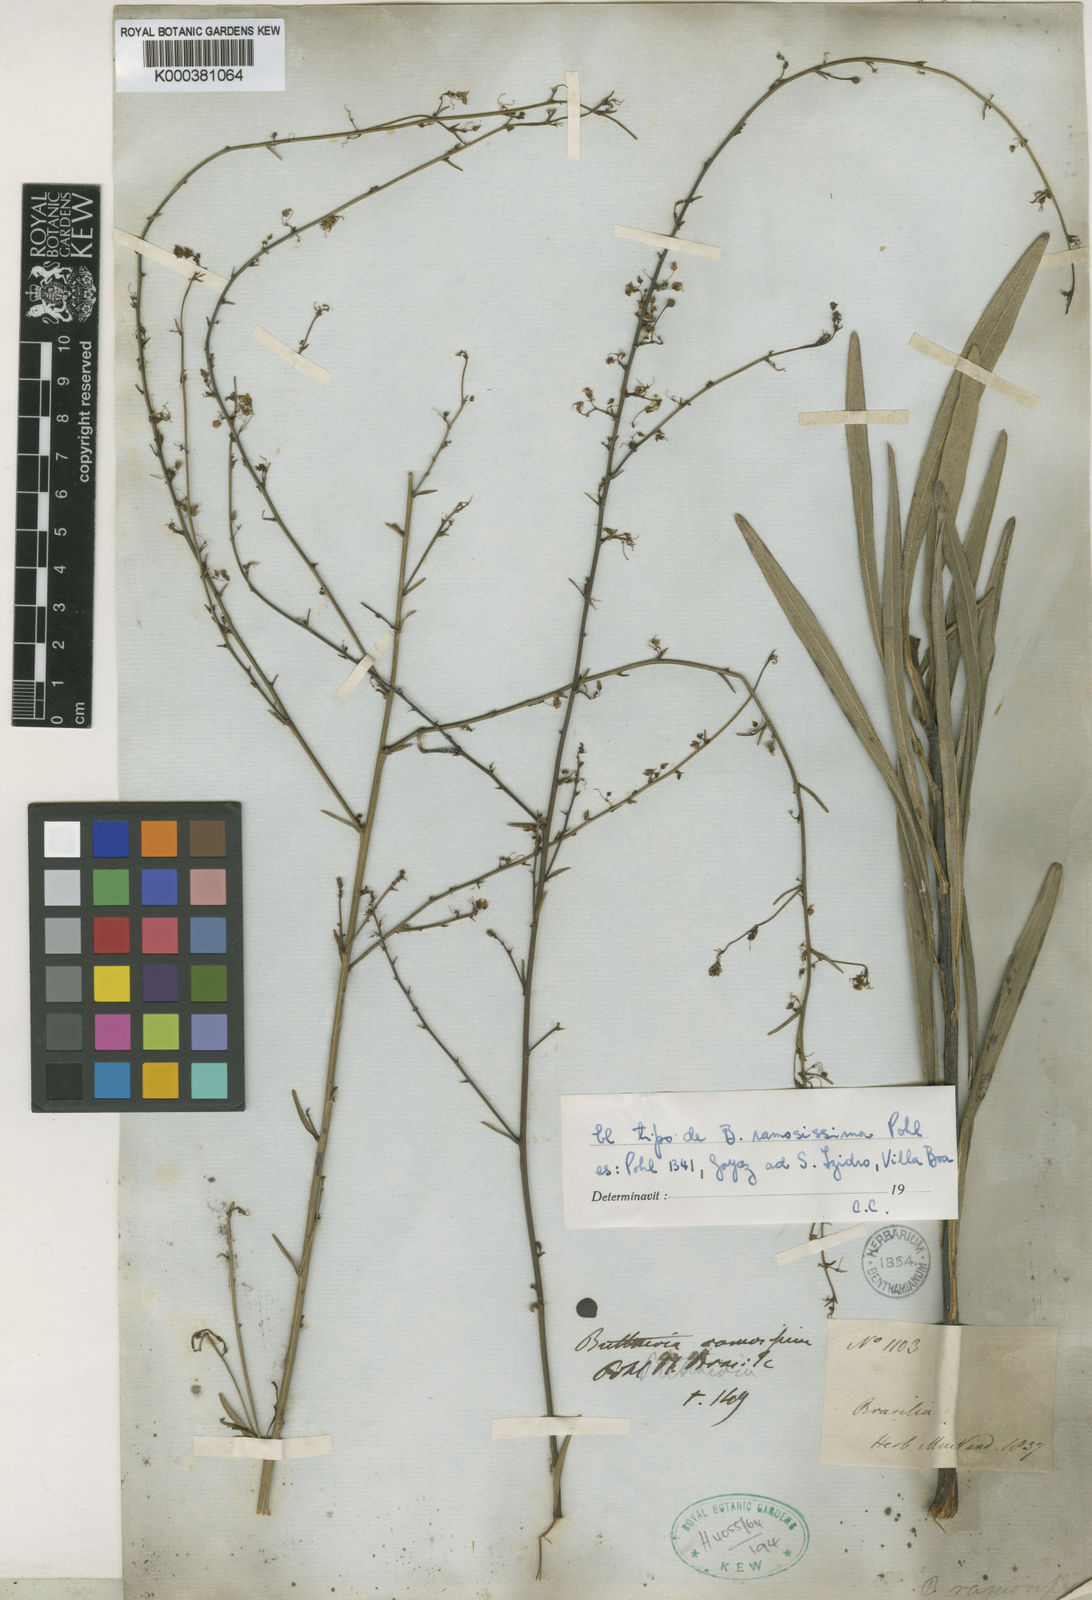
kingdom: Plantae
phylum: Tracheophyta
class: Magnoliopsida
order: Malvales
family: Malvaceae
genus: Byttneria
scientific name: Byttneria ramosissima
